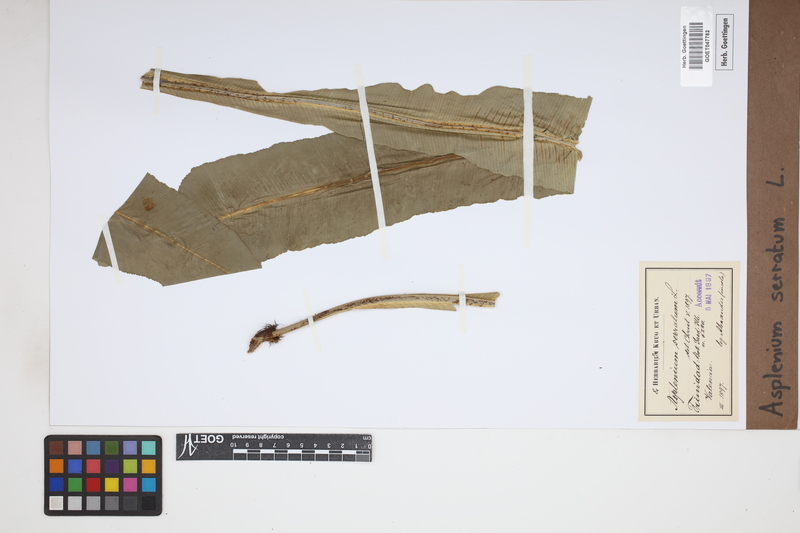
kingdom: Plantae
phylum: Tracheophyta
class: Polypodiopsida
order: Polypodiales
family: Aspleniaceae
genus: Asplenium
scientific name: Asplenium serratum
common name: Wild birdnest fern
